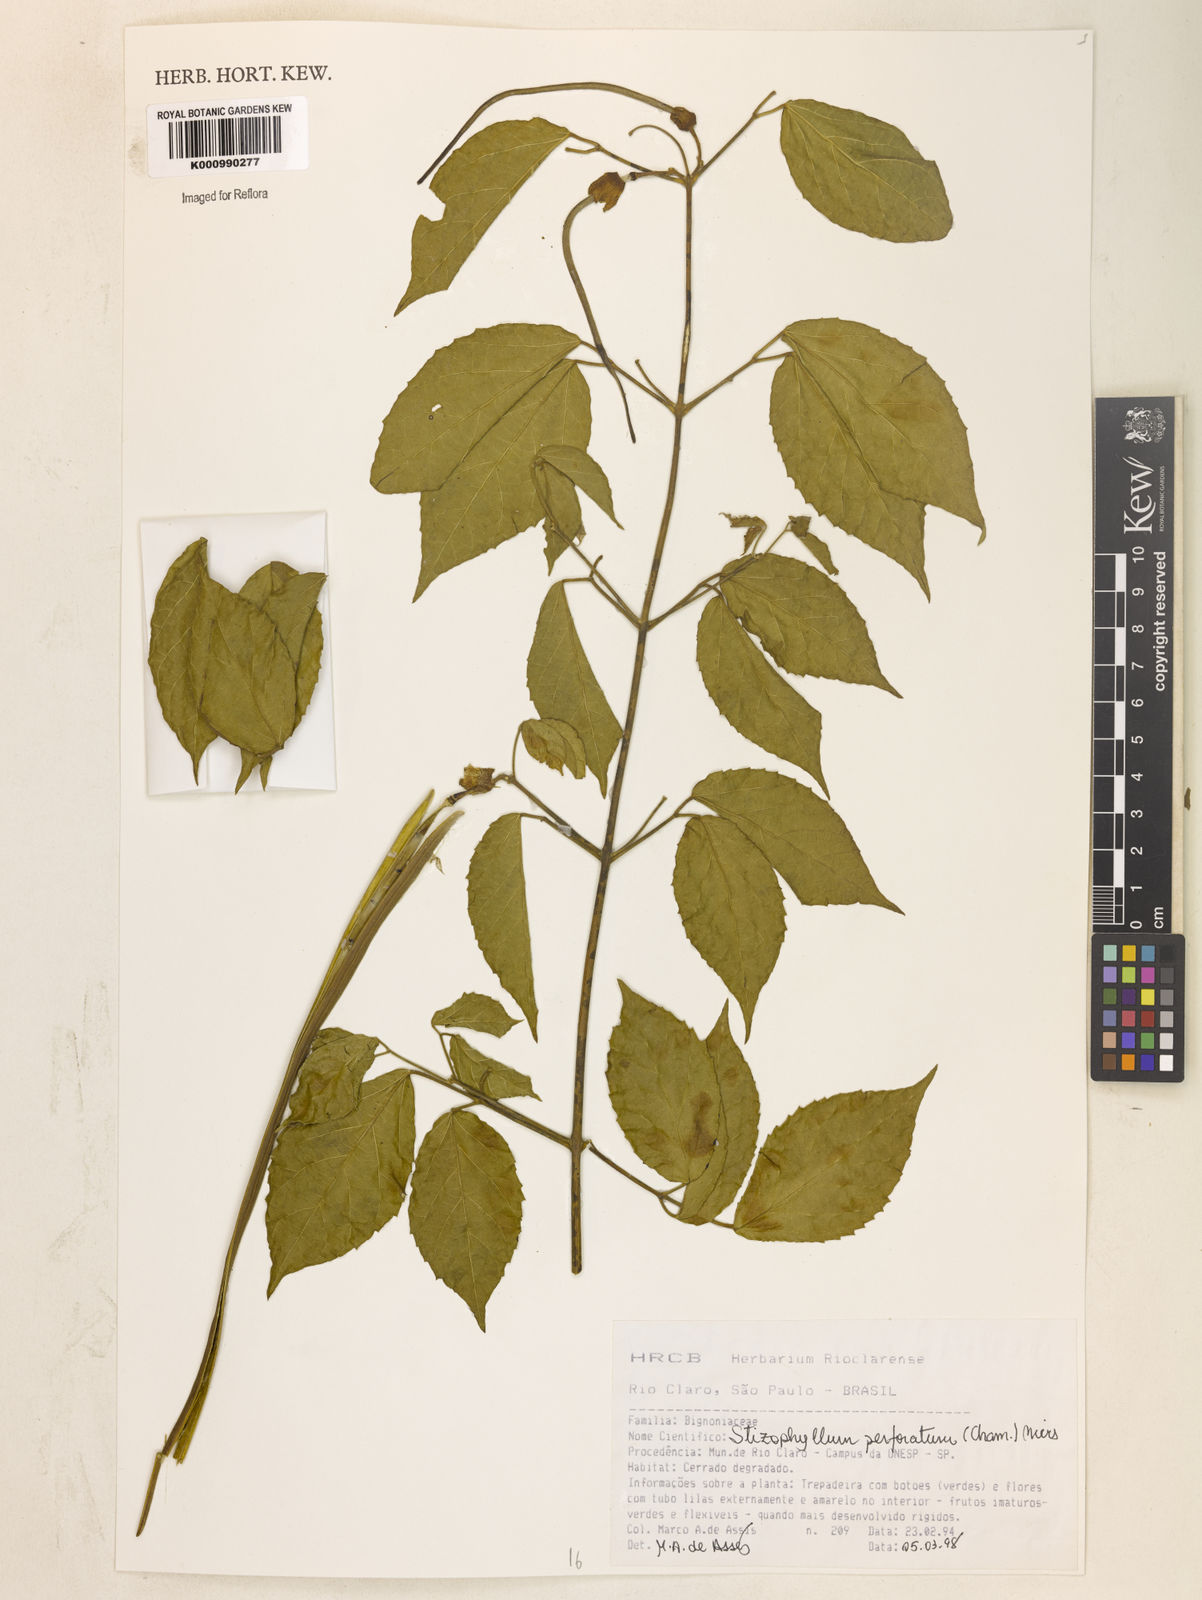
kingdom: Plantae
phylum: Tracheophyta
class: Magnoliopsida
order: Lamiales
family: Bignoniaceae
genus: Stizophyllum
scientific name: Stizophyllum perforatum
